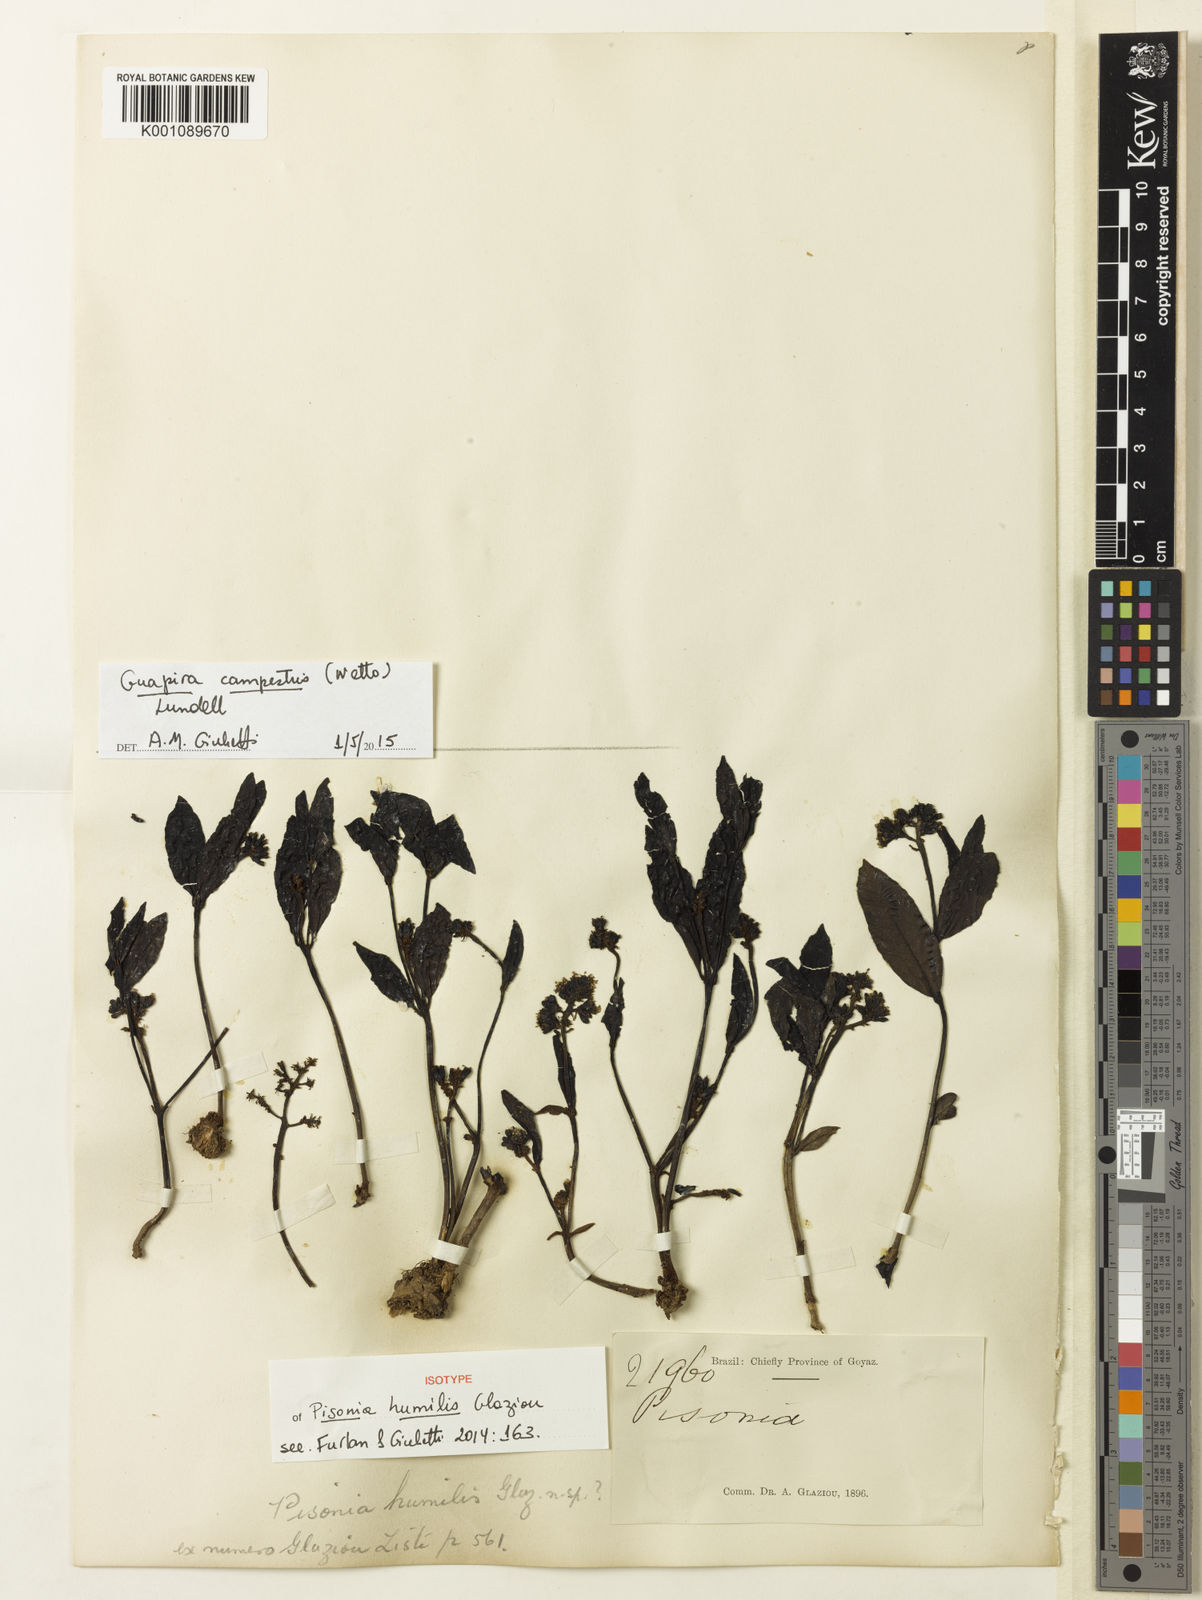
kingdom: Plantae
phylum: Tracheophyta
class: Magnoliopsida
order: Caryophyllales
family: Nyctaginaceae
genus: Guapira
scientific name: Guapira campestris
